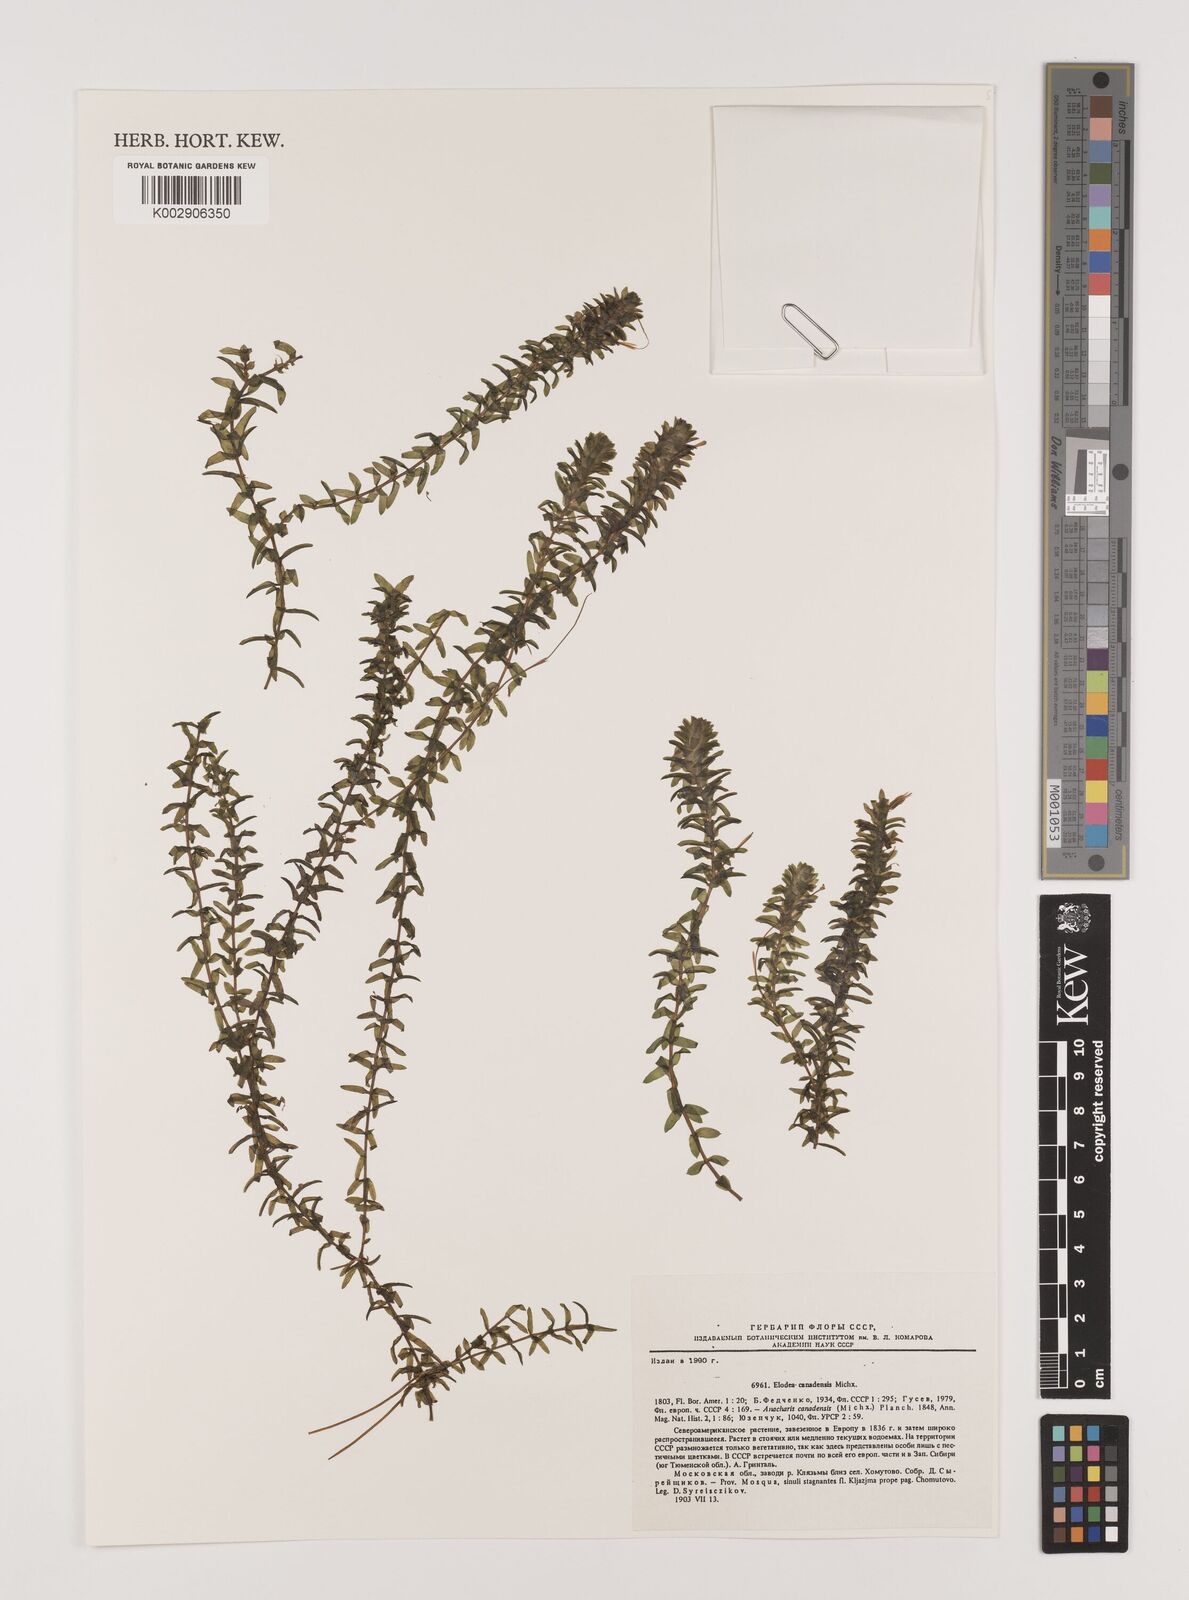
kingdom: Plantae
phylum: Tracheophyta
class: Liliopsida
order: Alismatales
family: Hydrocharitaceae
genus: Elodea
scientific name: Elodea canadensis
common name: Canadian waterweed
